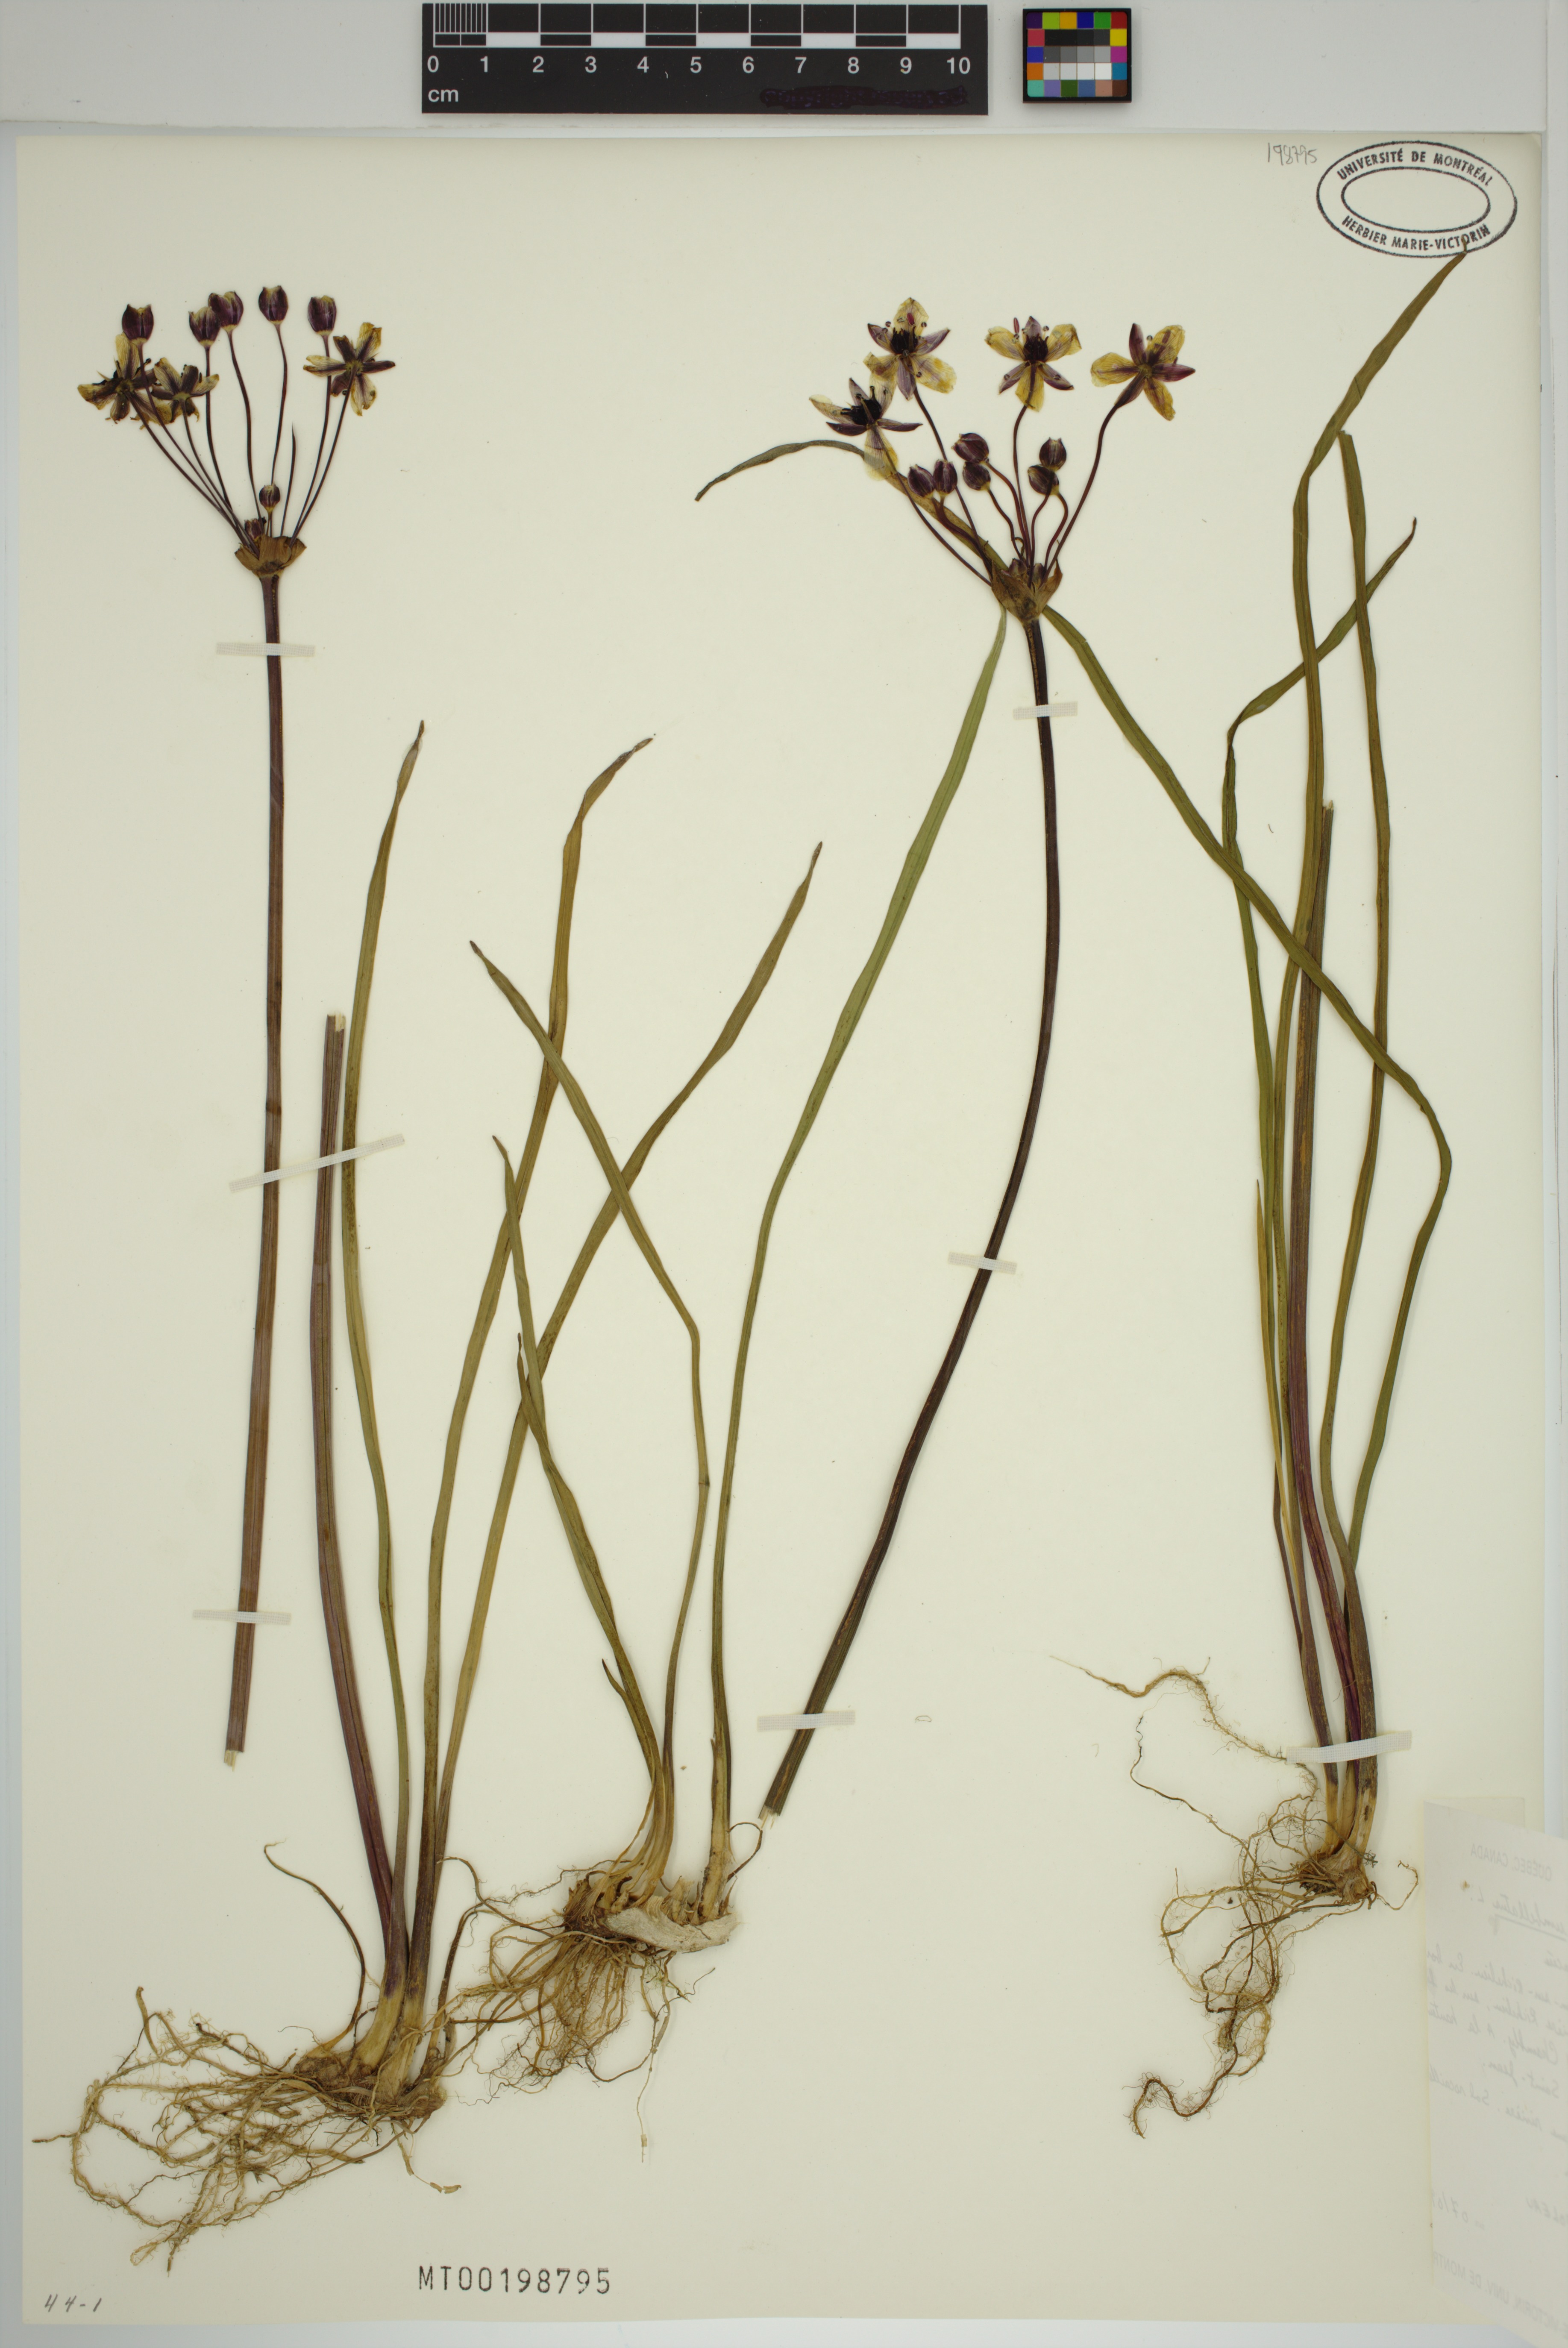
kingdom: Plantae
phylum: Tracheophyta
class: Liliopsida
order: Alismatales
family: Butomaceae
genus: Butomus
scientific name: Butomus umbellatus
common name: Flowering-rush
